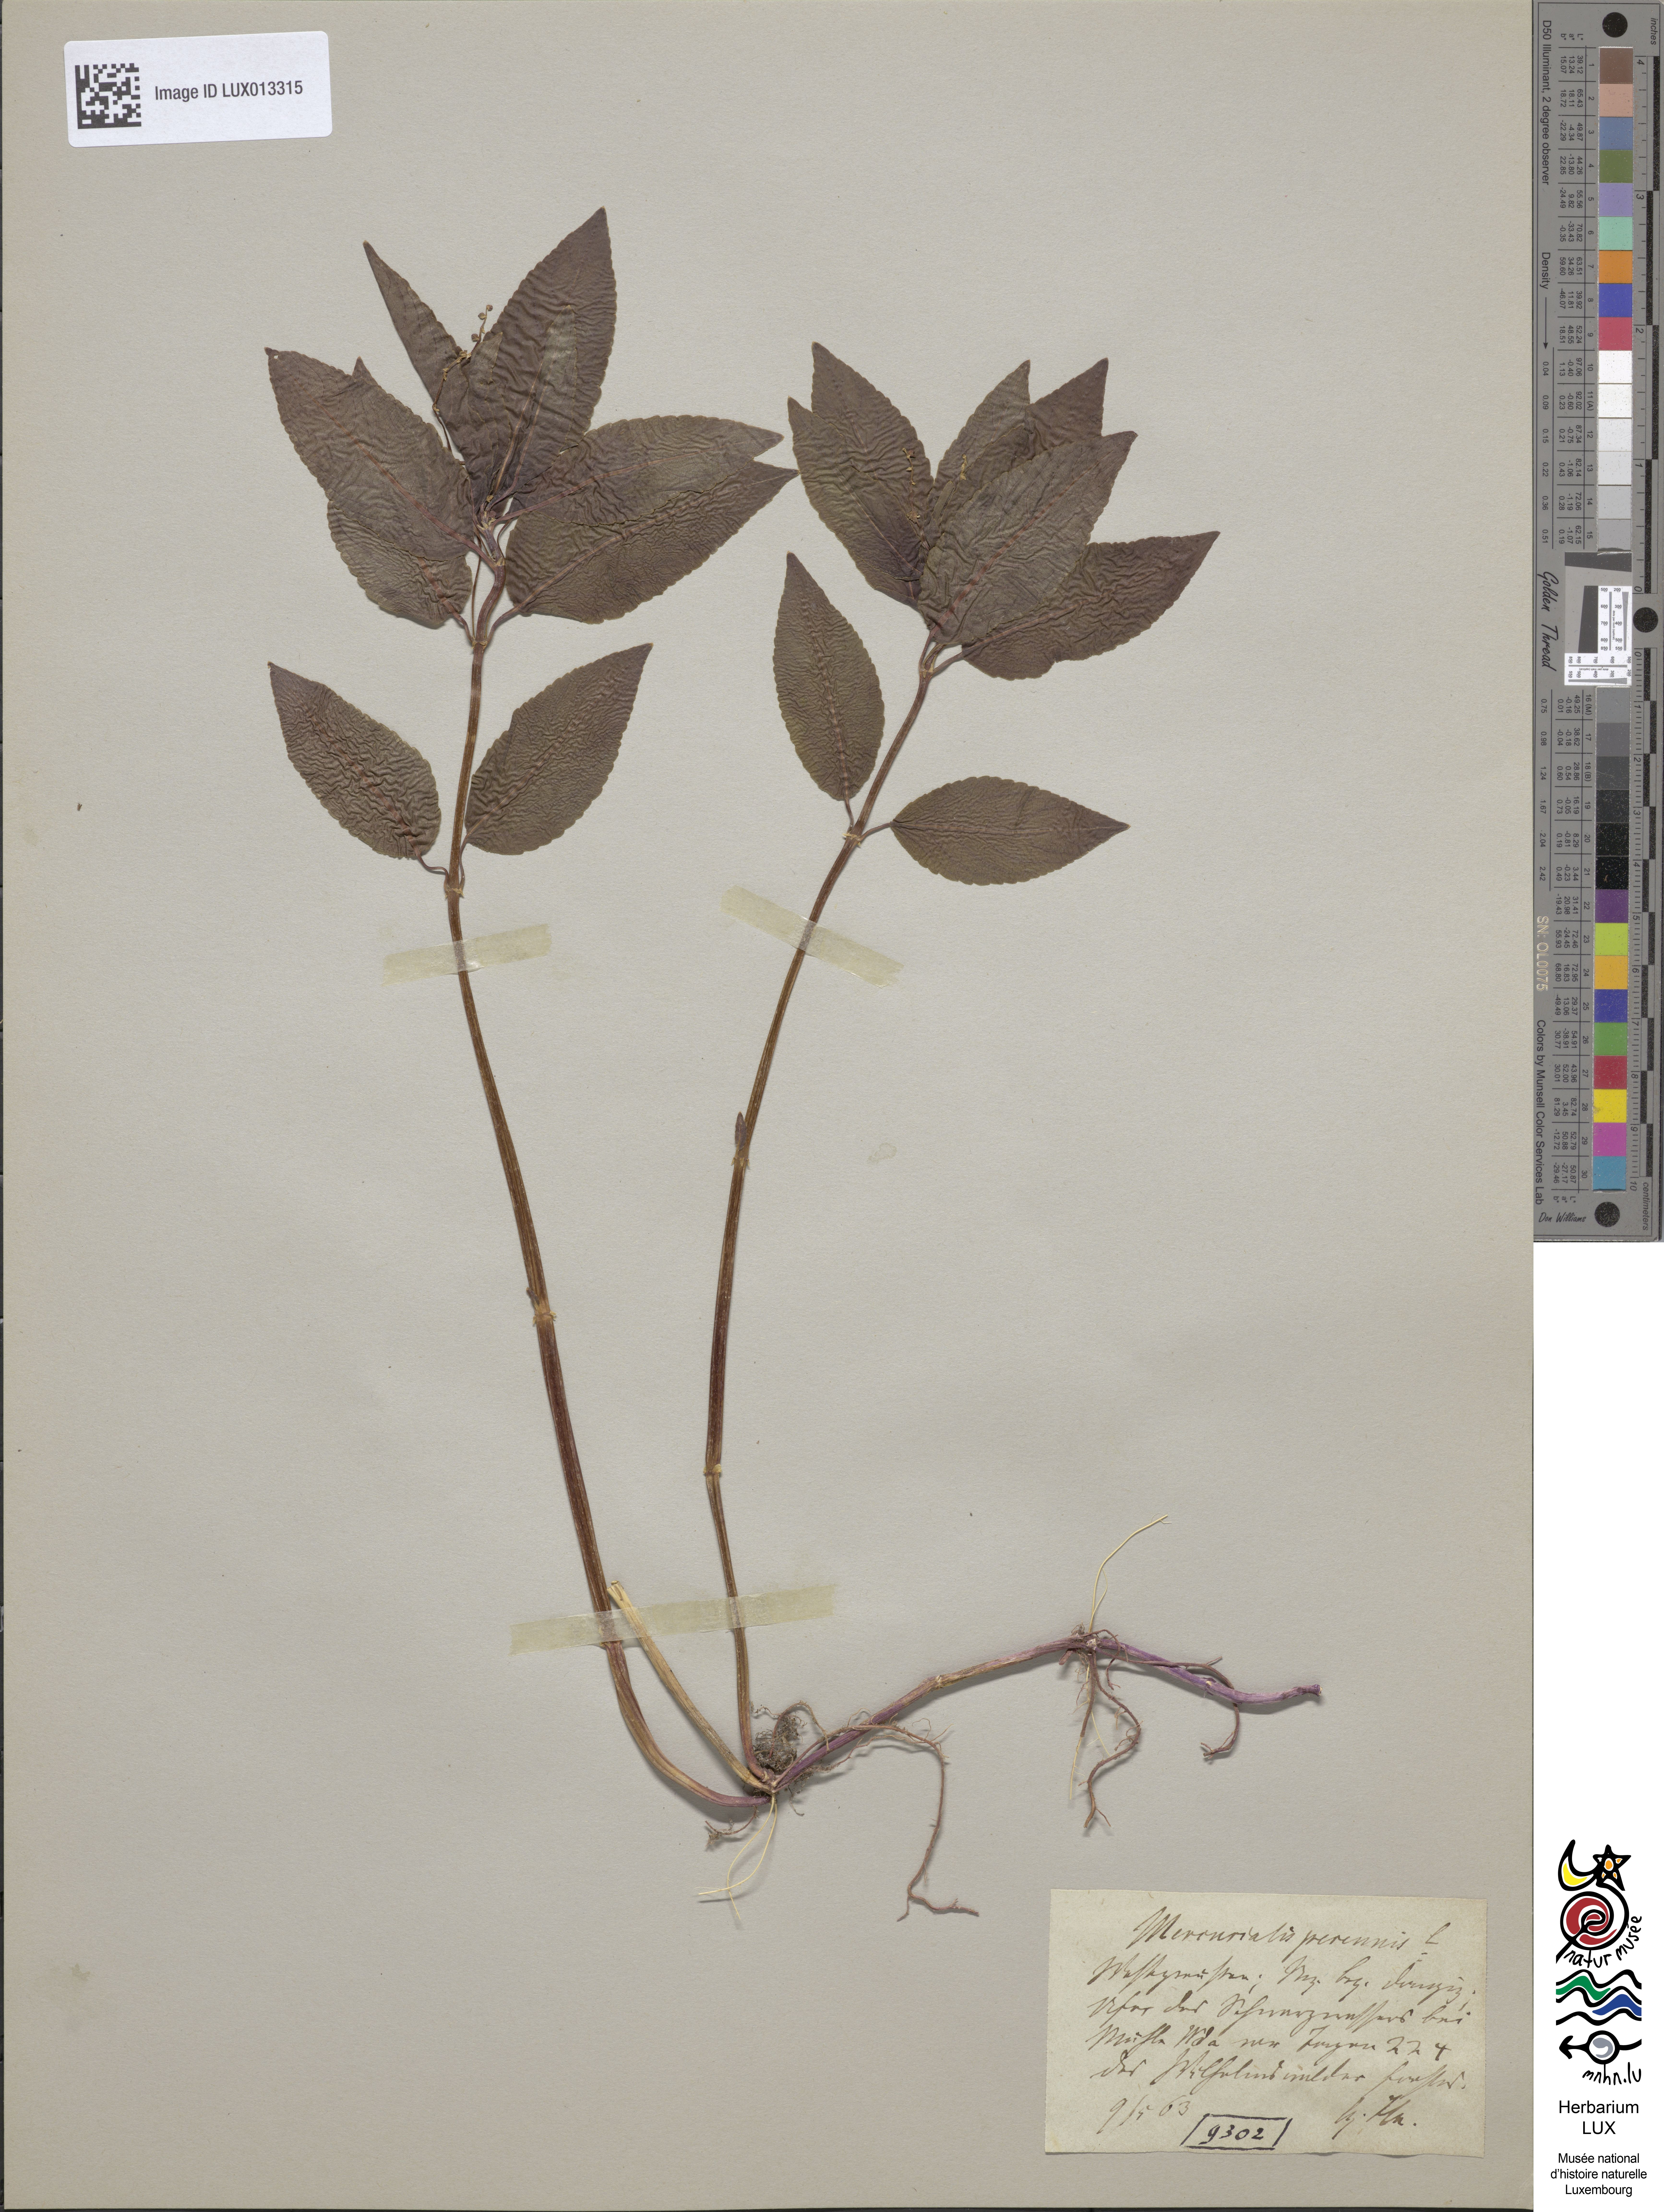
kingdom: Plantae
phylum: Tracheophyta
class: Magnoliopsida
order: Malpighiales
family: Euphorbiaceae
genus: Mercurialis
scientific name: Mercurialis perennis
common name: Dog mercury
